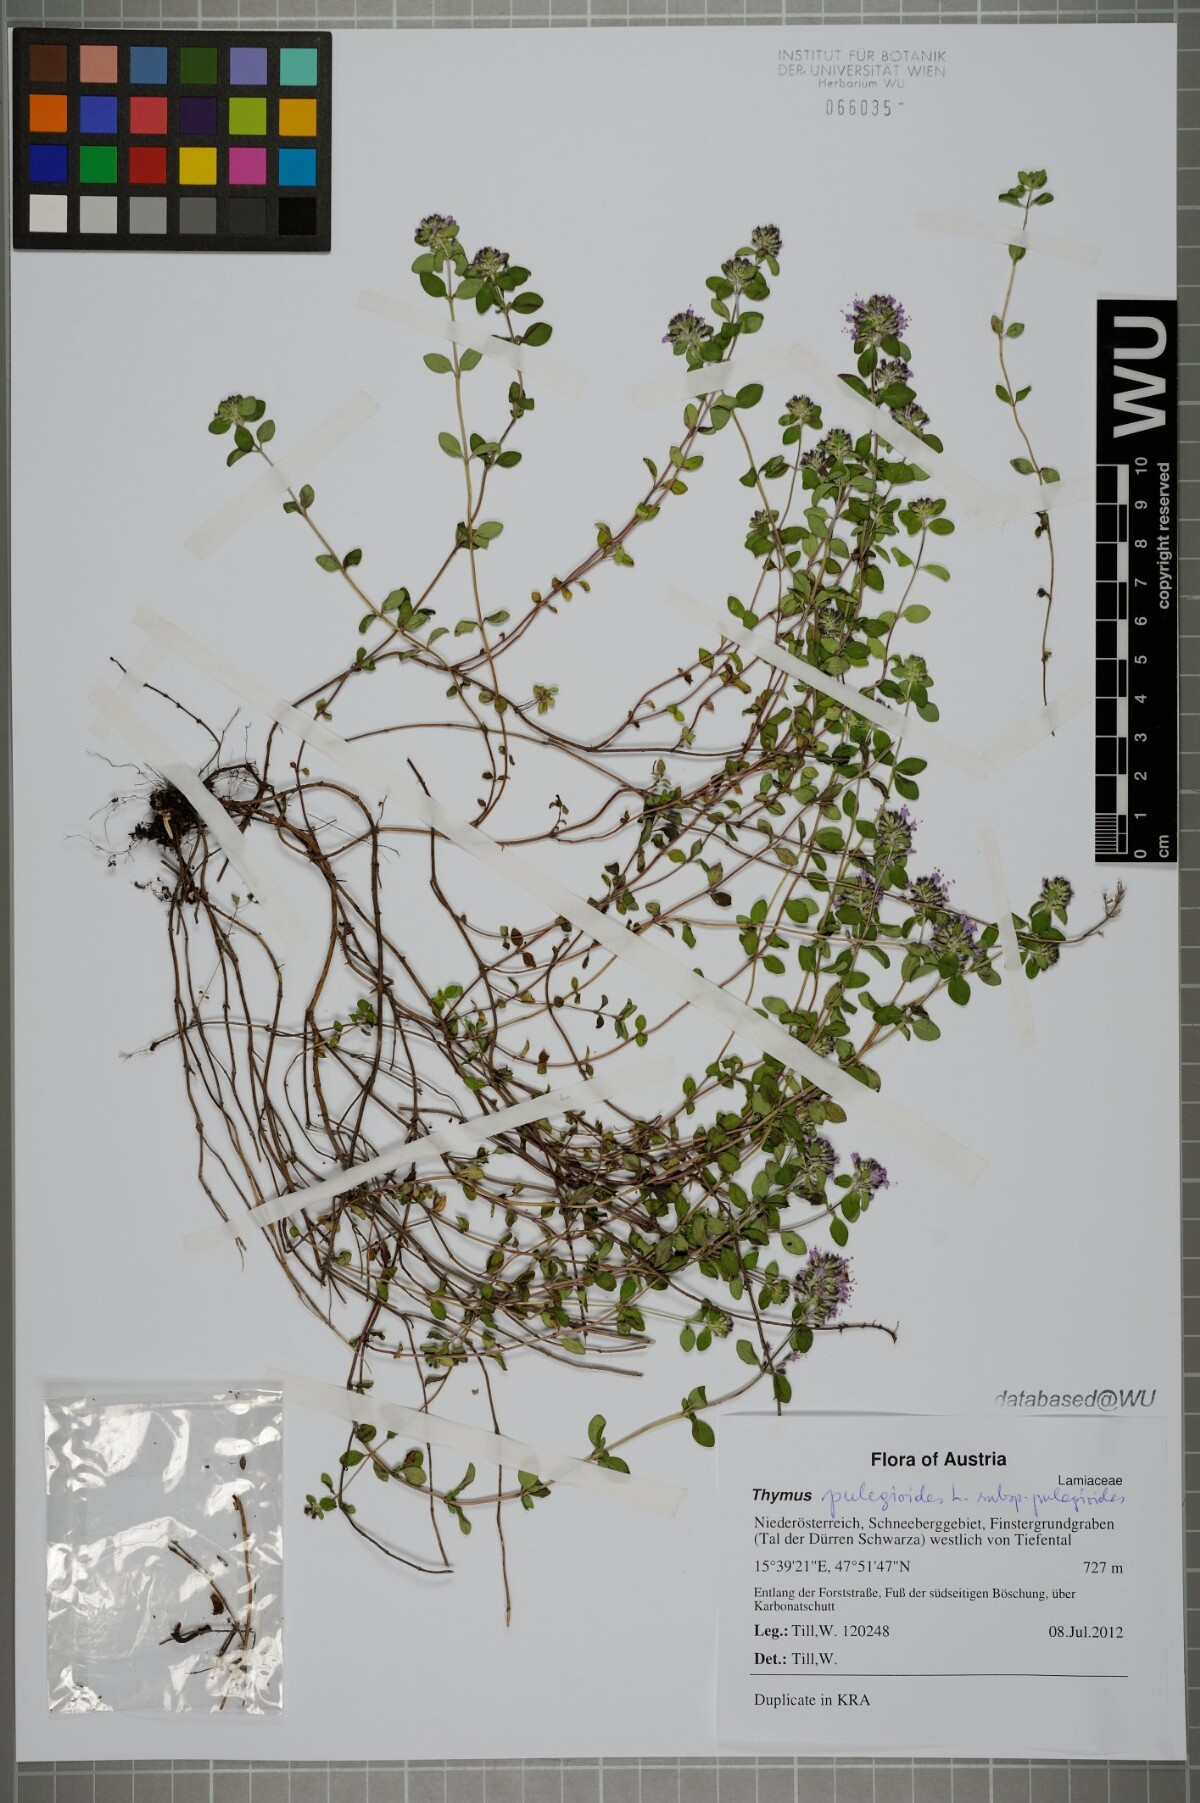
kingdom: Plantae
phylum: Tracheophyta
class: Magnoliopsida
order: Lamiales
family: Lamiaceae
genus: Thymus
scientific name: Thymus pulegioides
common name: Large thyme
